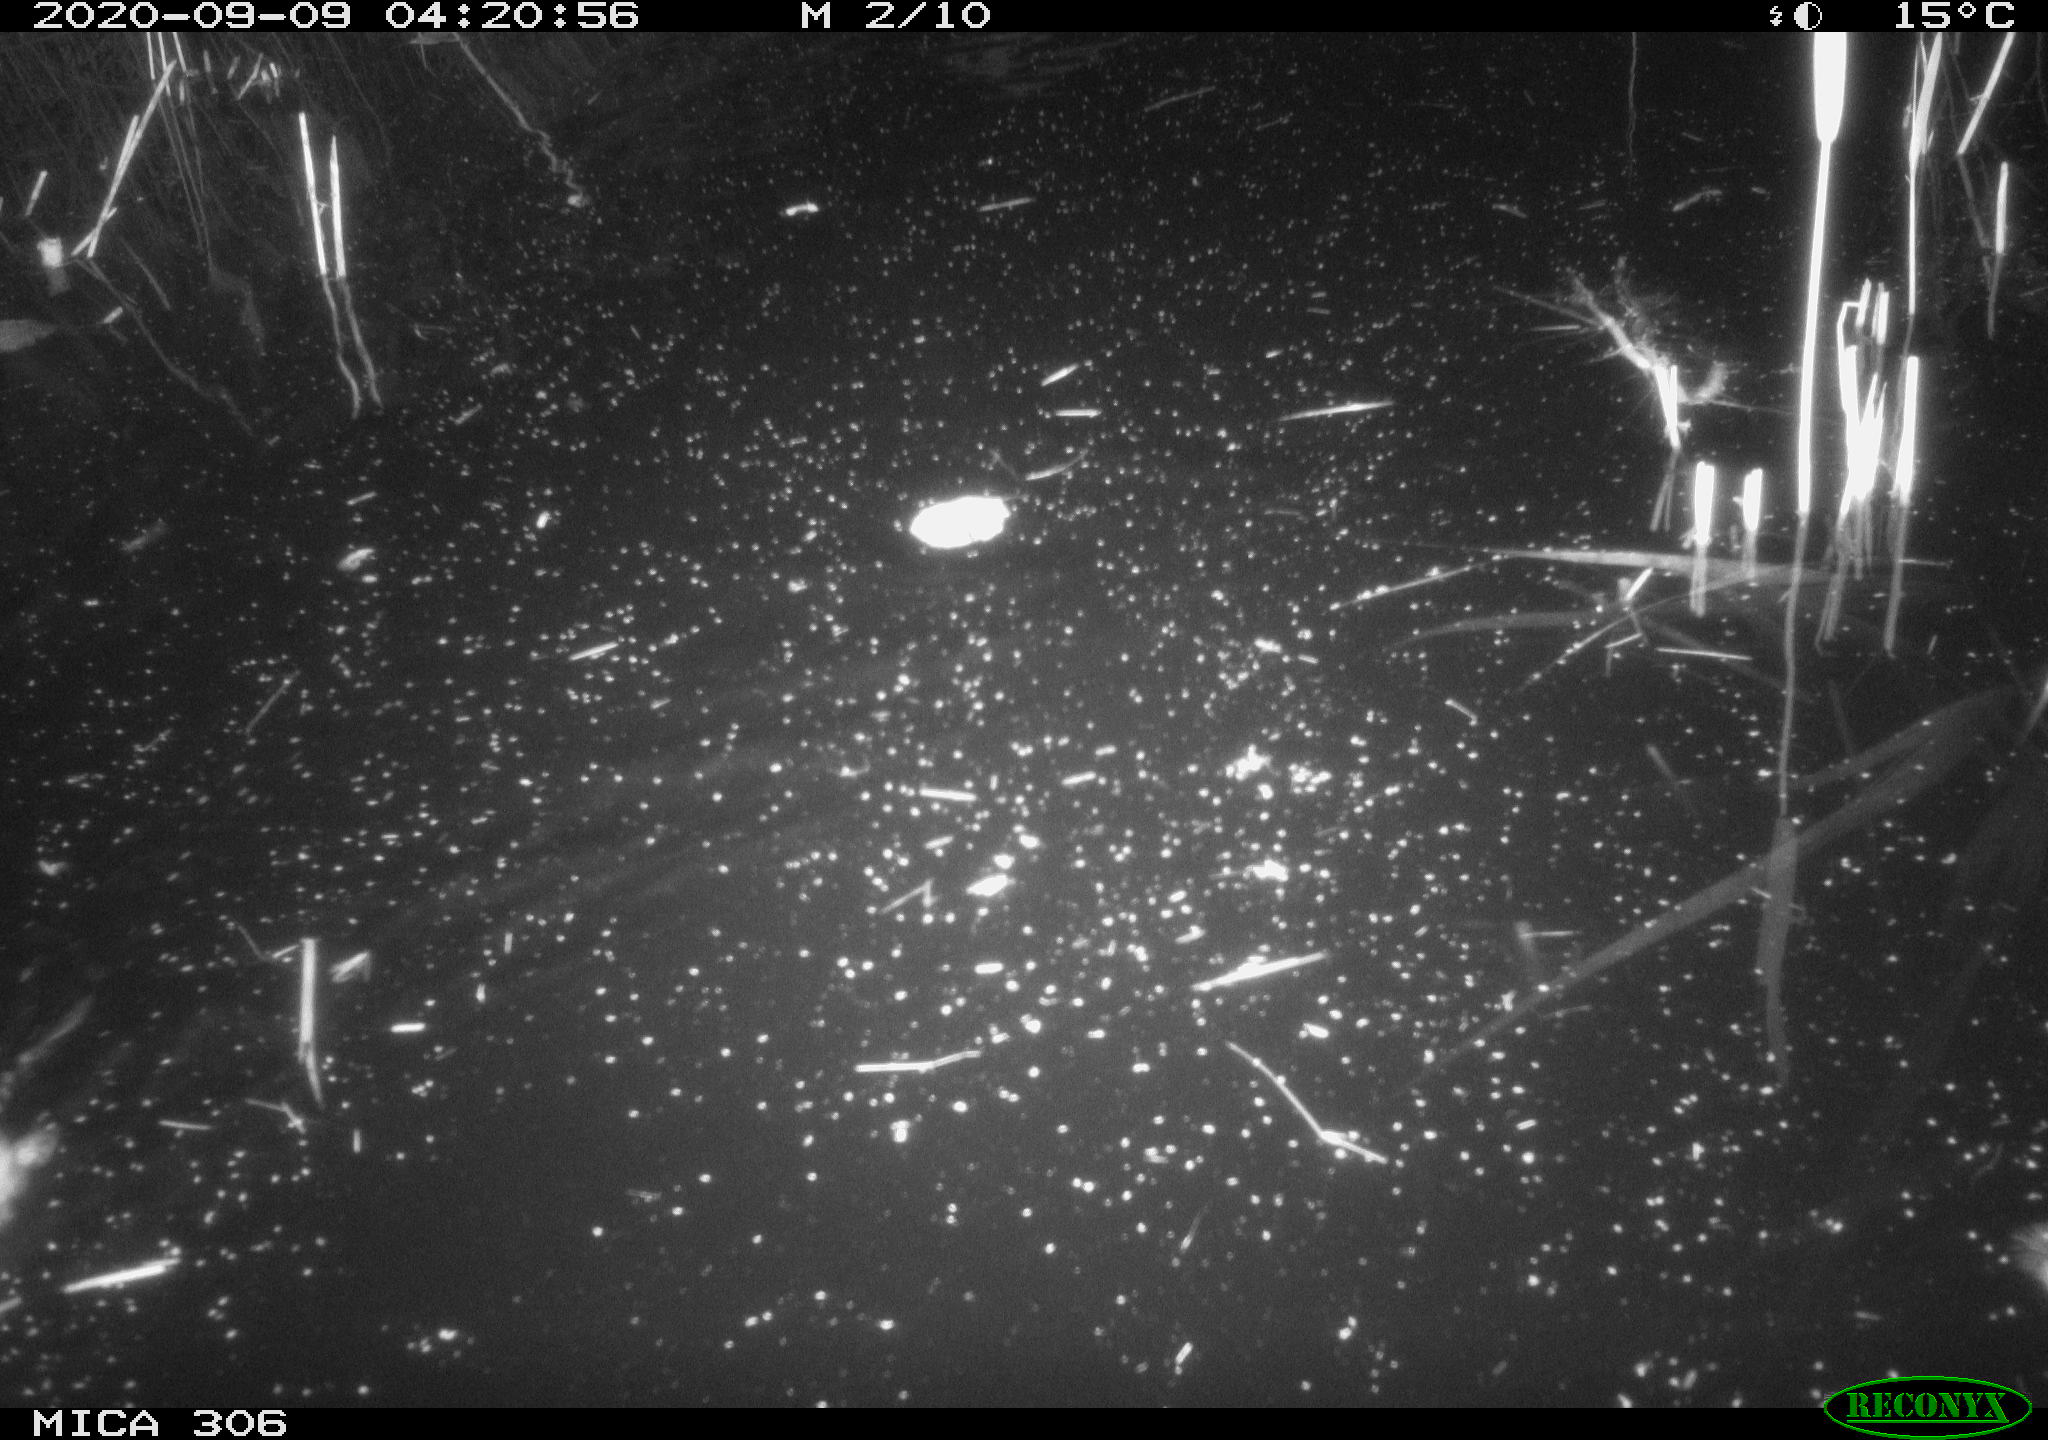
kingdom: Animalia
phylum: Chordata
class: Mammalia
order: Rodentia
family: Muridae
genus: Rattus
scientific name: Rattus norvegicus
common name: Brown rat
